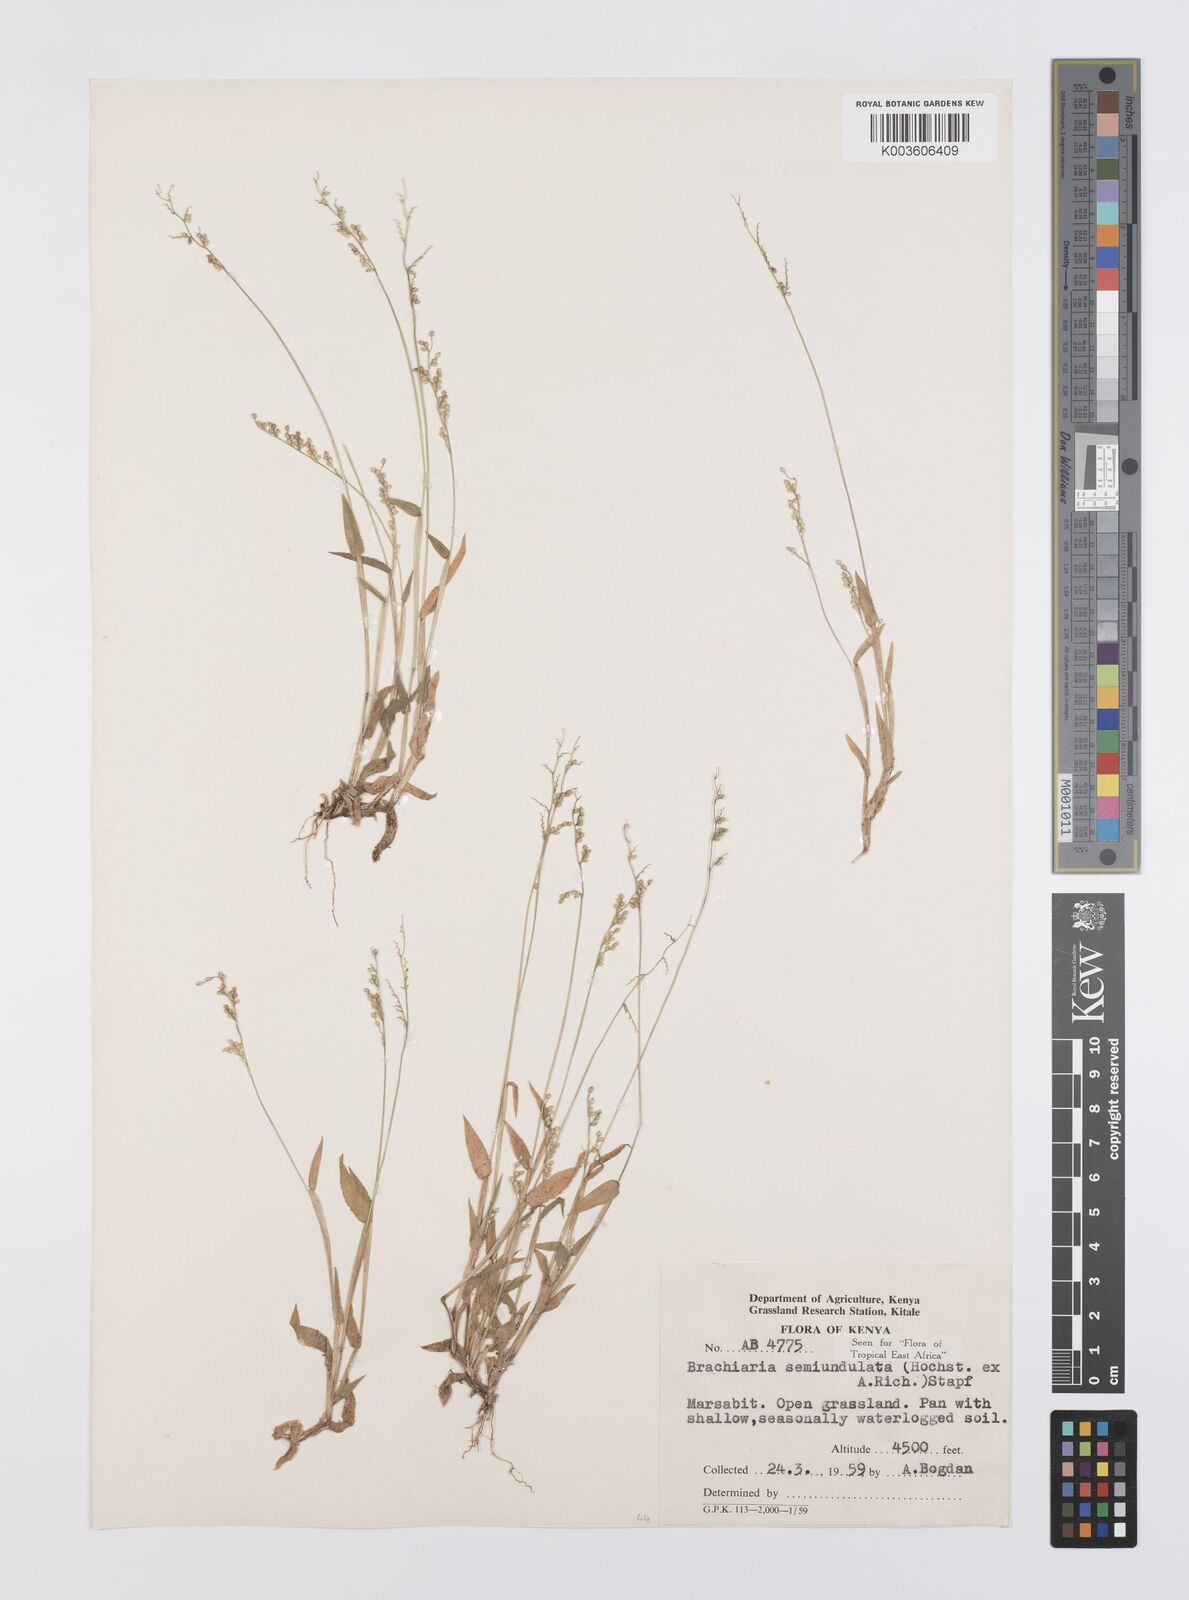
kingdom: Plantae
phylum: Tracheophyta
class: Liliopsida
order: Poales
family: Poaceae
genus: Urochloa
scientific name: Urochloa semiundulata
